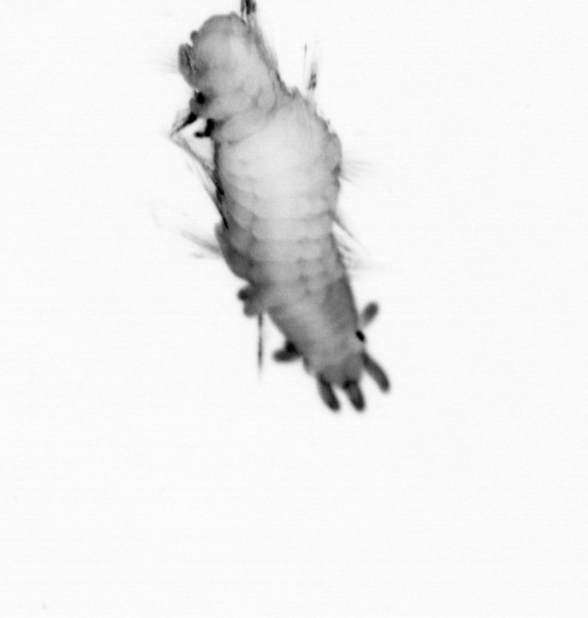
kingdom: Animalia
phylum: Annelida
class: Polychaeta
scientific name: Polychaeta
